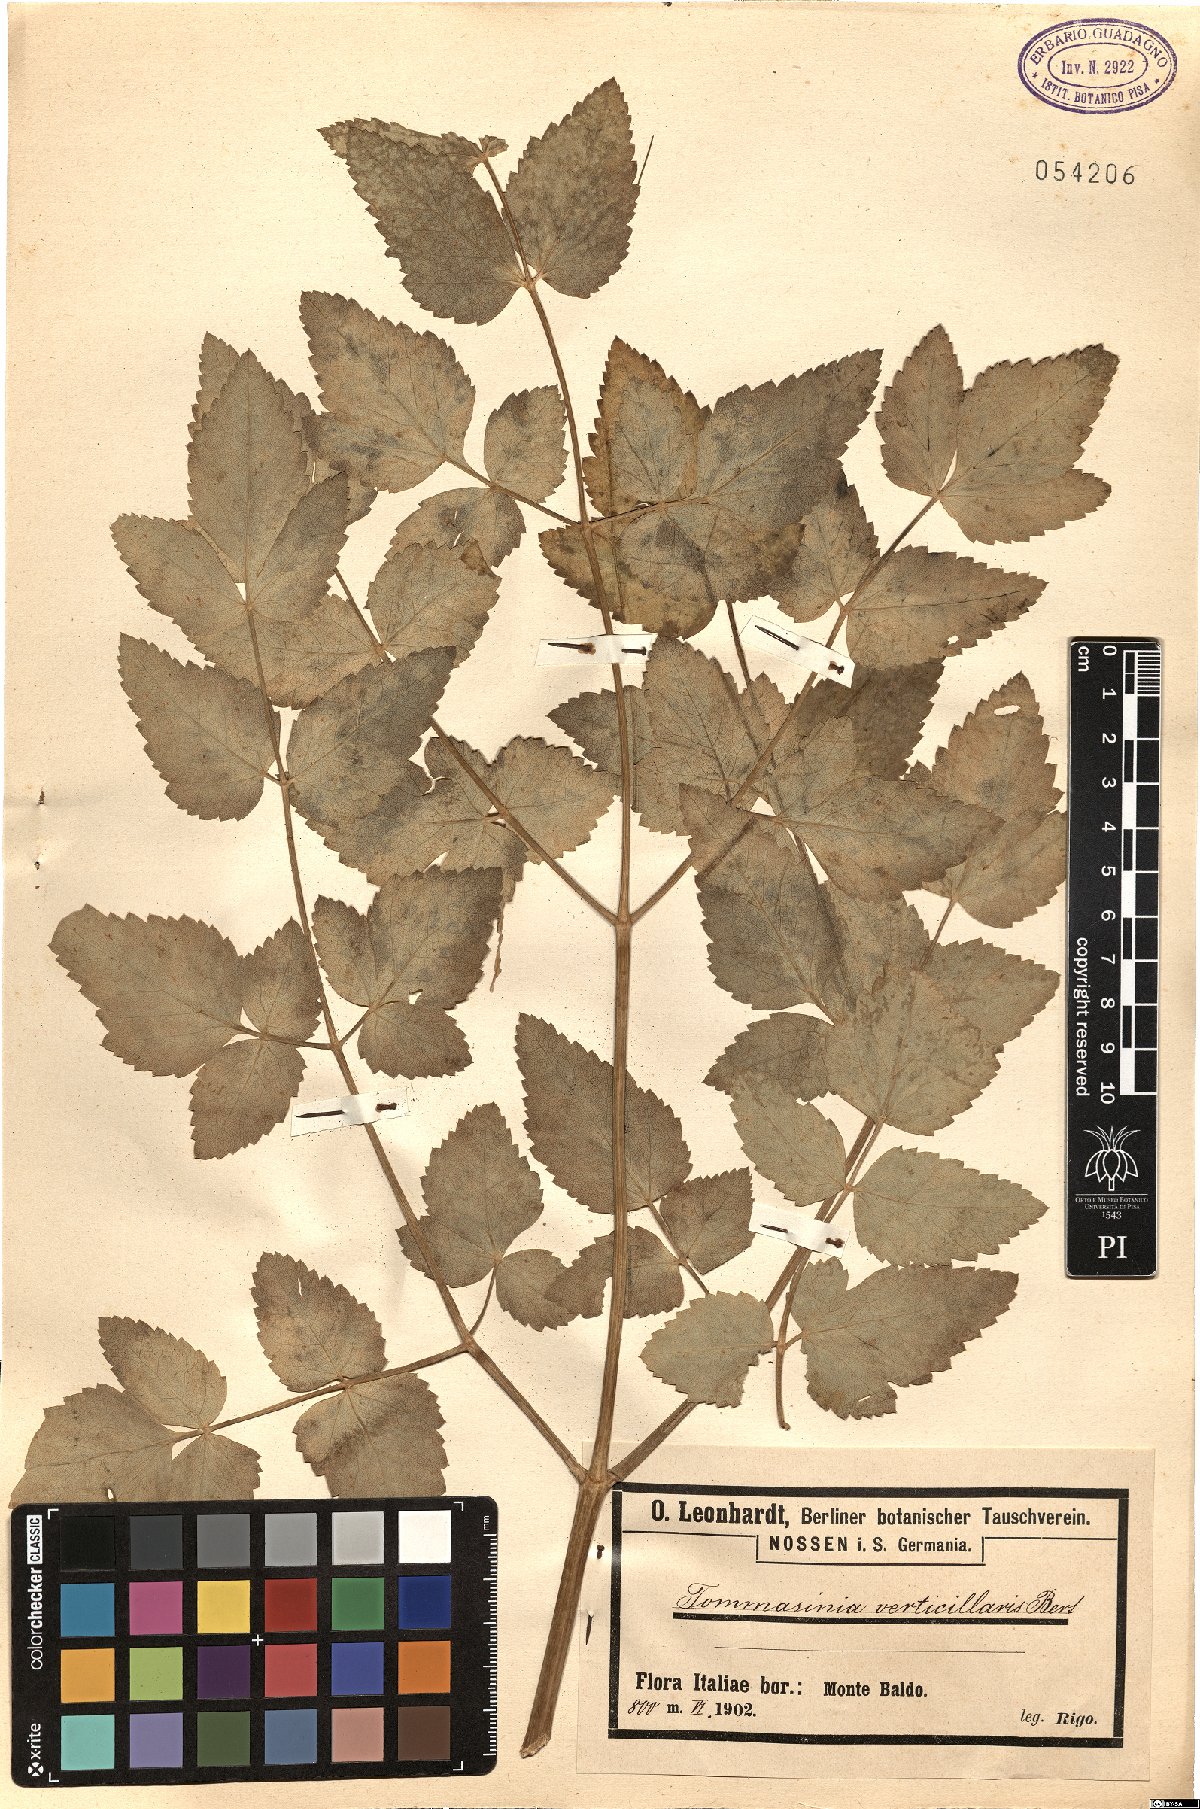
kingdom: Plantae
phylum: Tracheophyta
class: Magnoliopsida
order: Apiales
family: Apiaceae
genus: Tommasinia
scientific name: Tommasinia altissima
